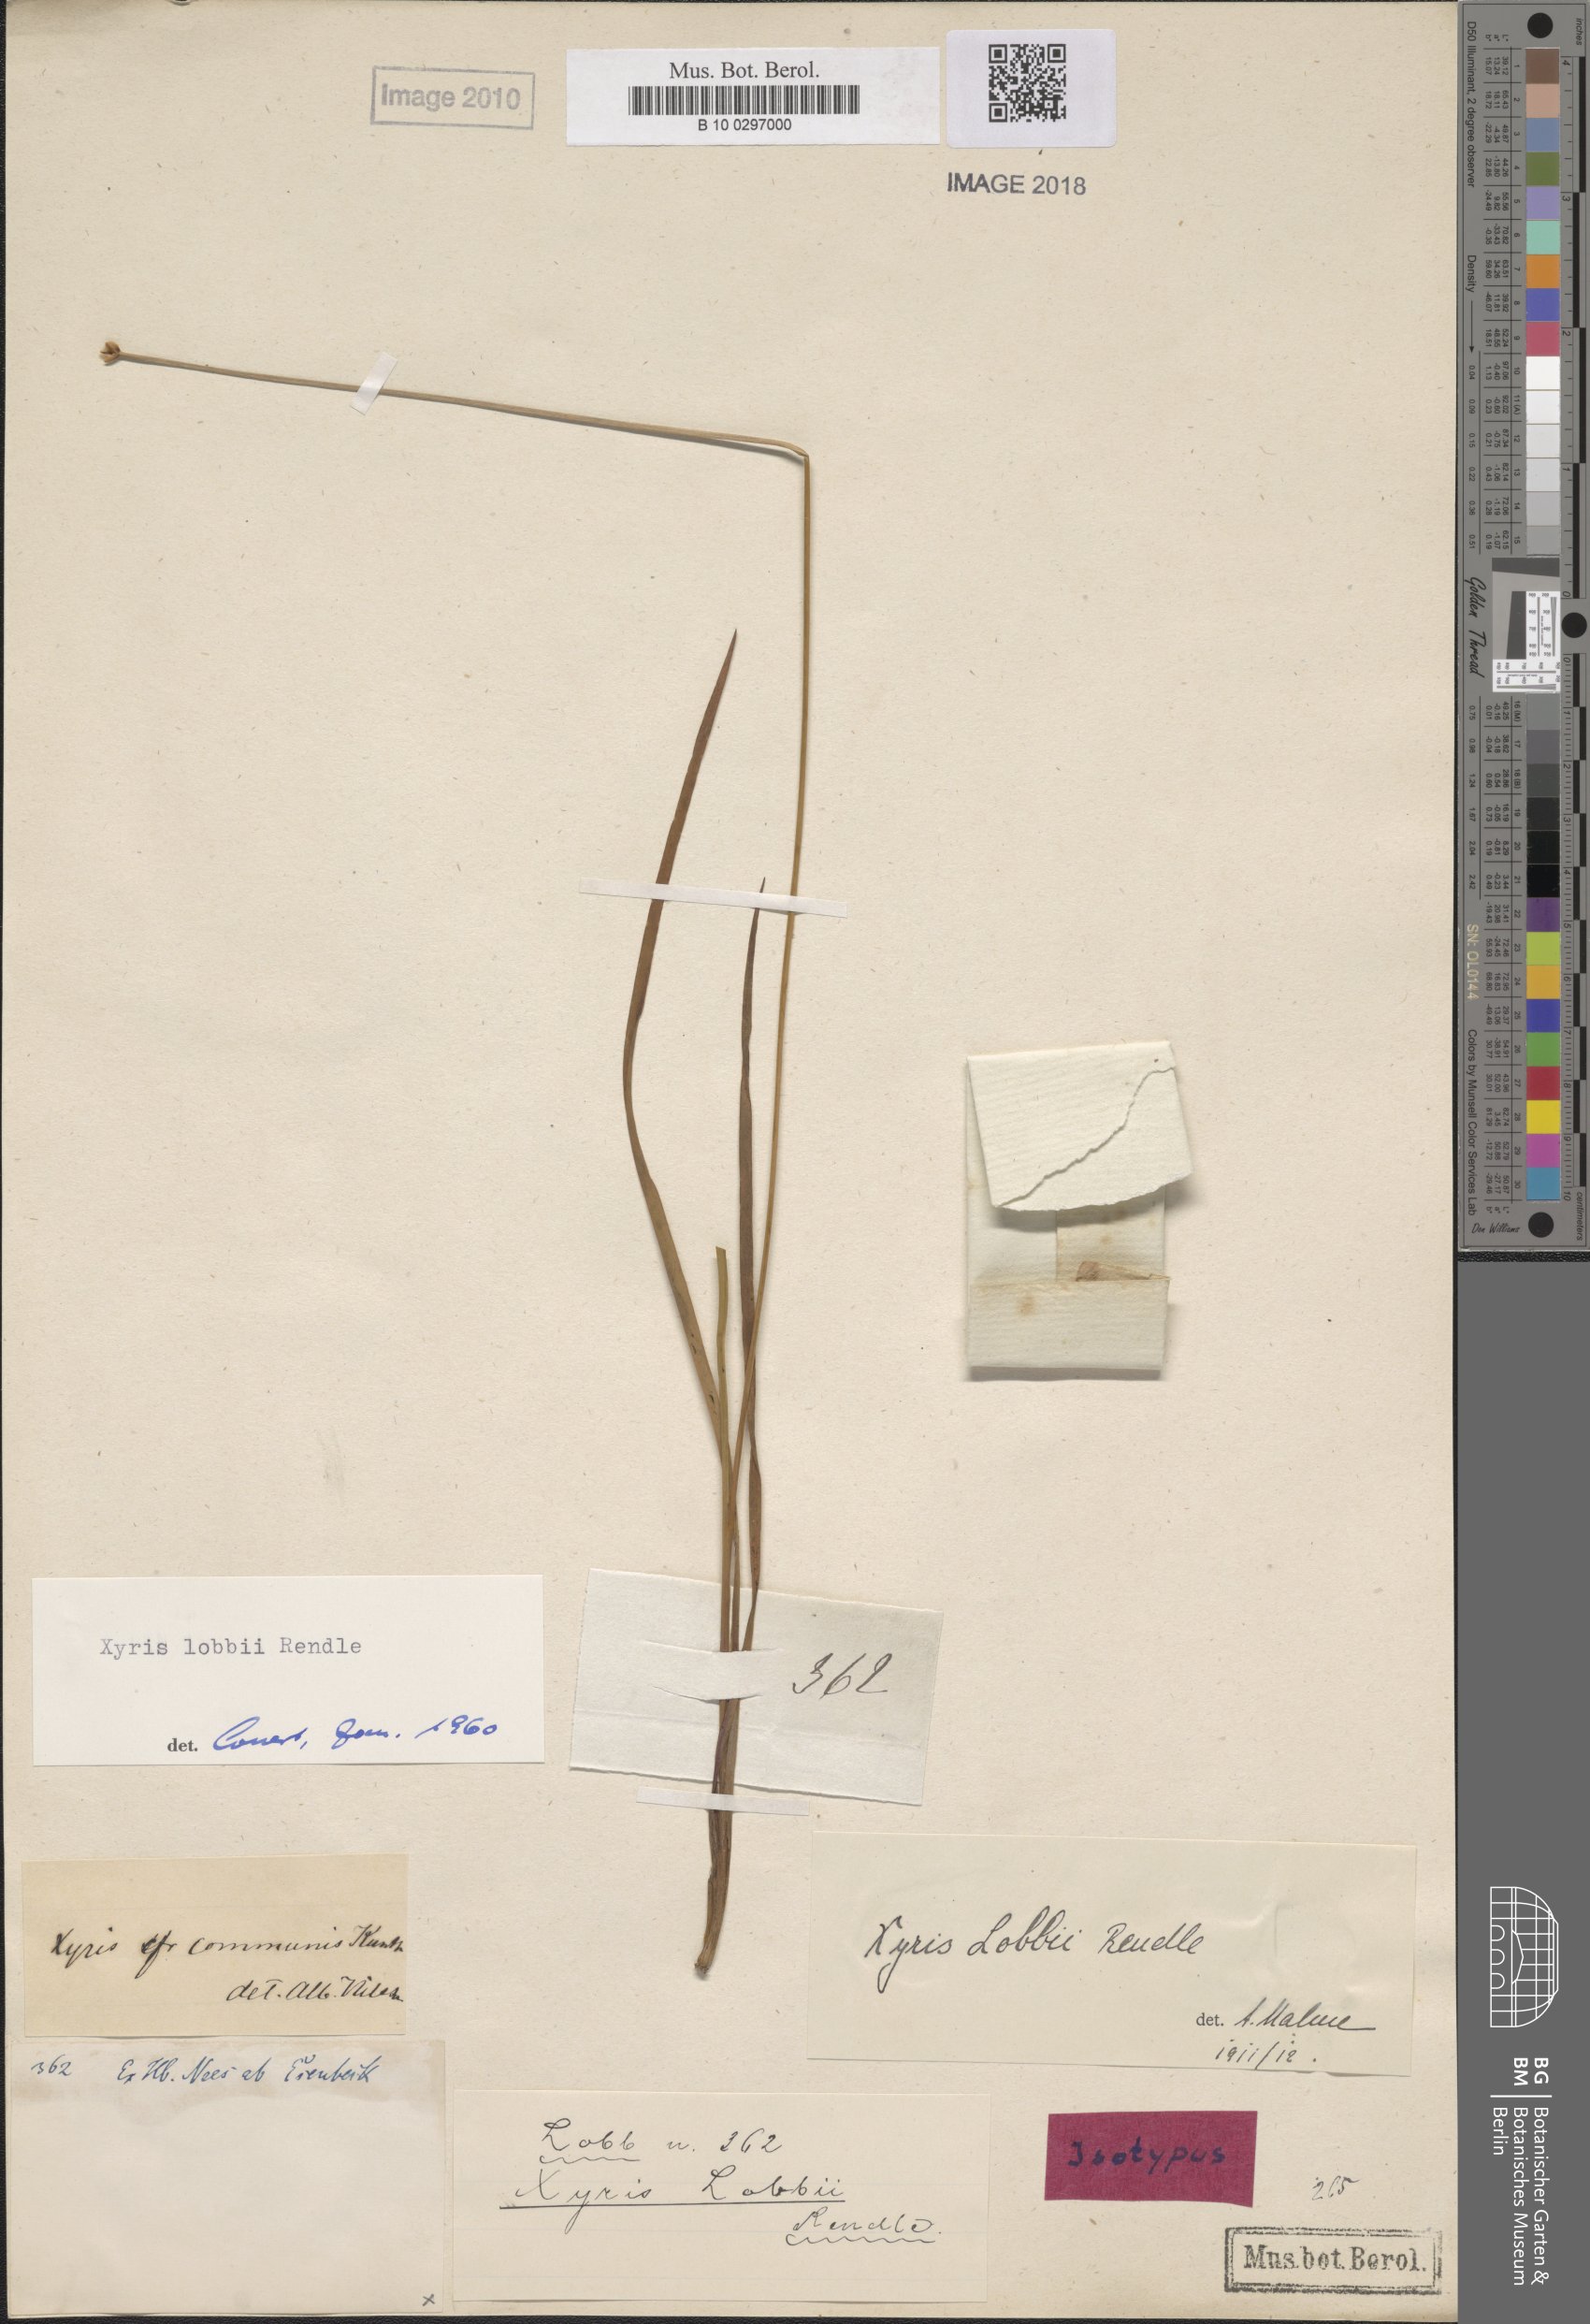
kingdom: Plantae
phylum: Tracheophyta
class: Liliopsida
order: Poales
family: Xyridaceae
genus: Xyris
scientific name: Xyris lobbii
